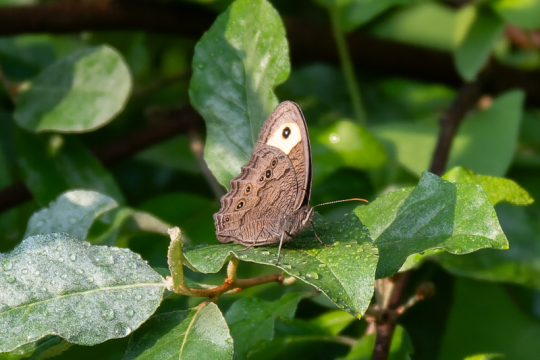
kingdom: Animalia
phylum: Arthropoda
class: Insecta
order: Lepidoptera
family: Nymphalidae
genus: Cercyonis
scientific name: Cercyonis pegala
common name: Common Wood-Nymph
